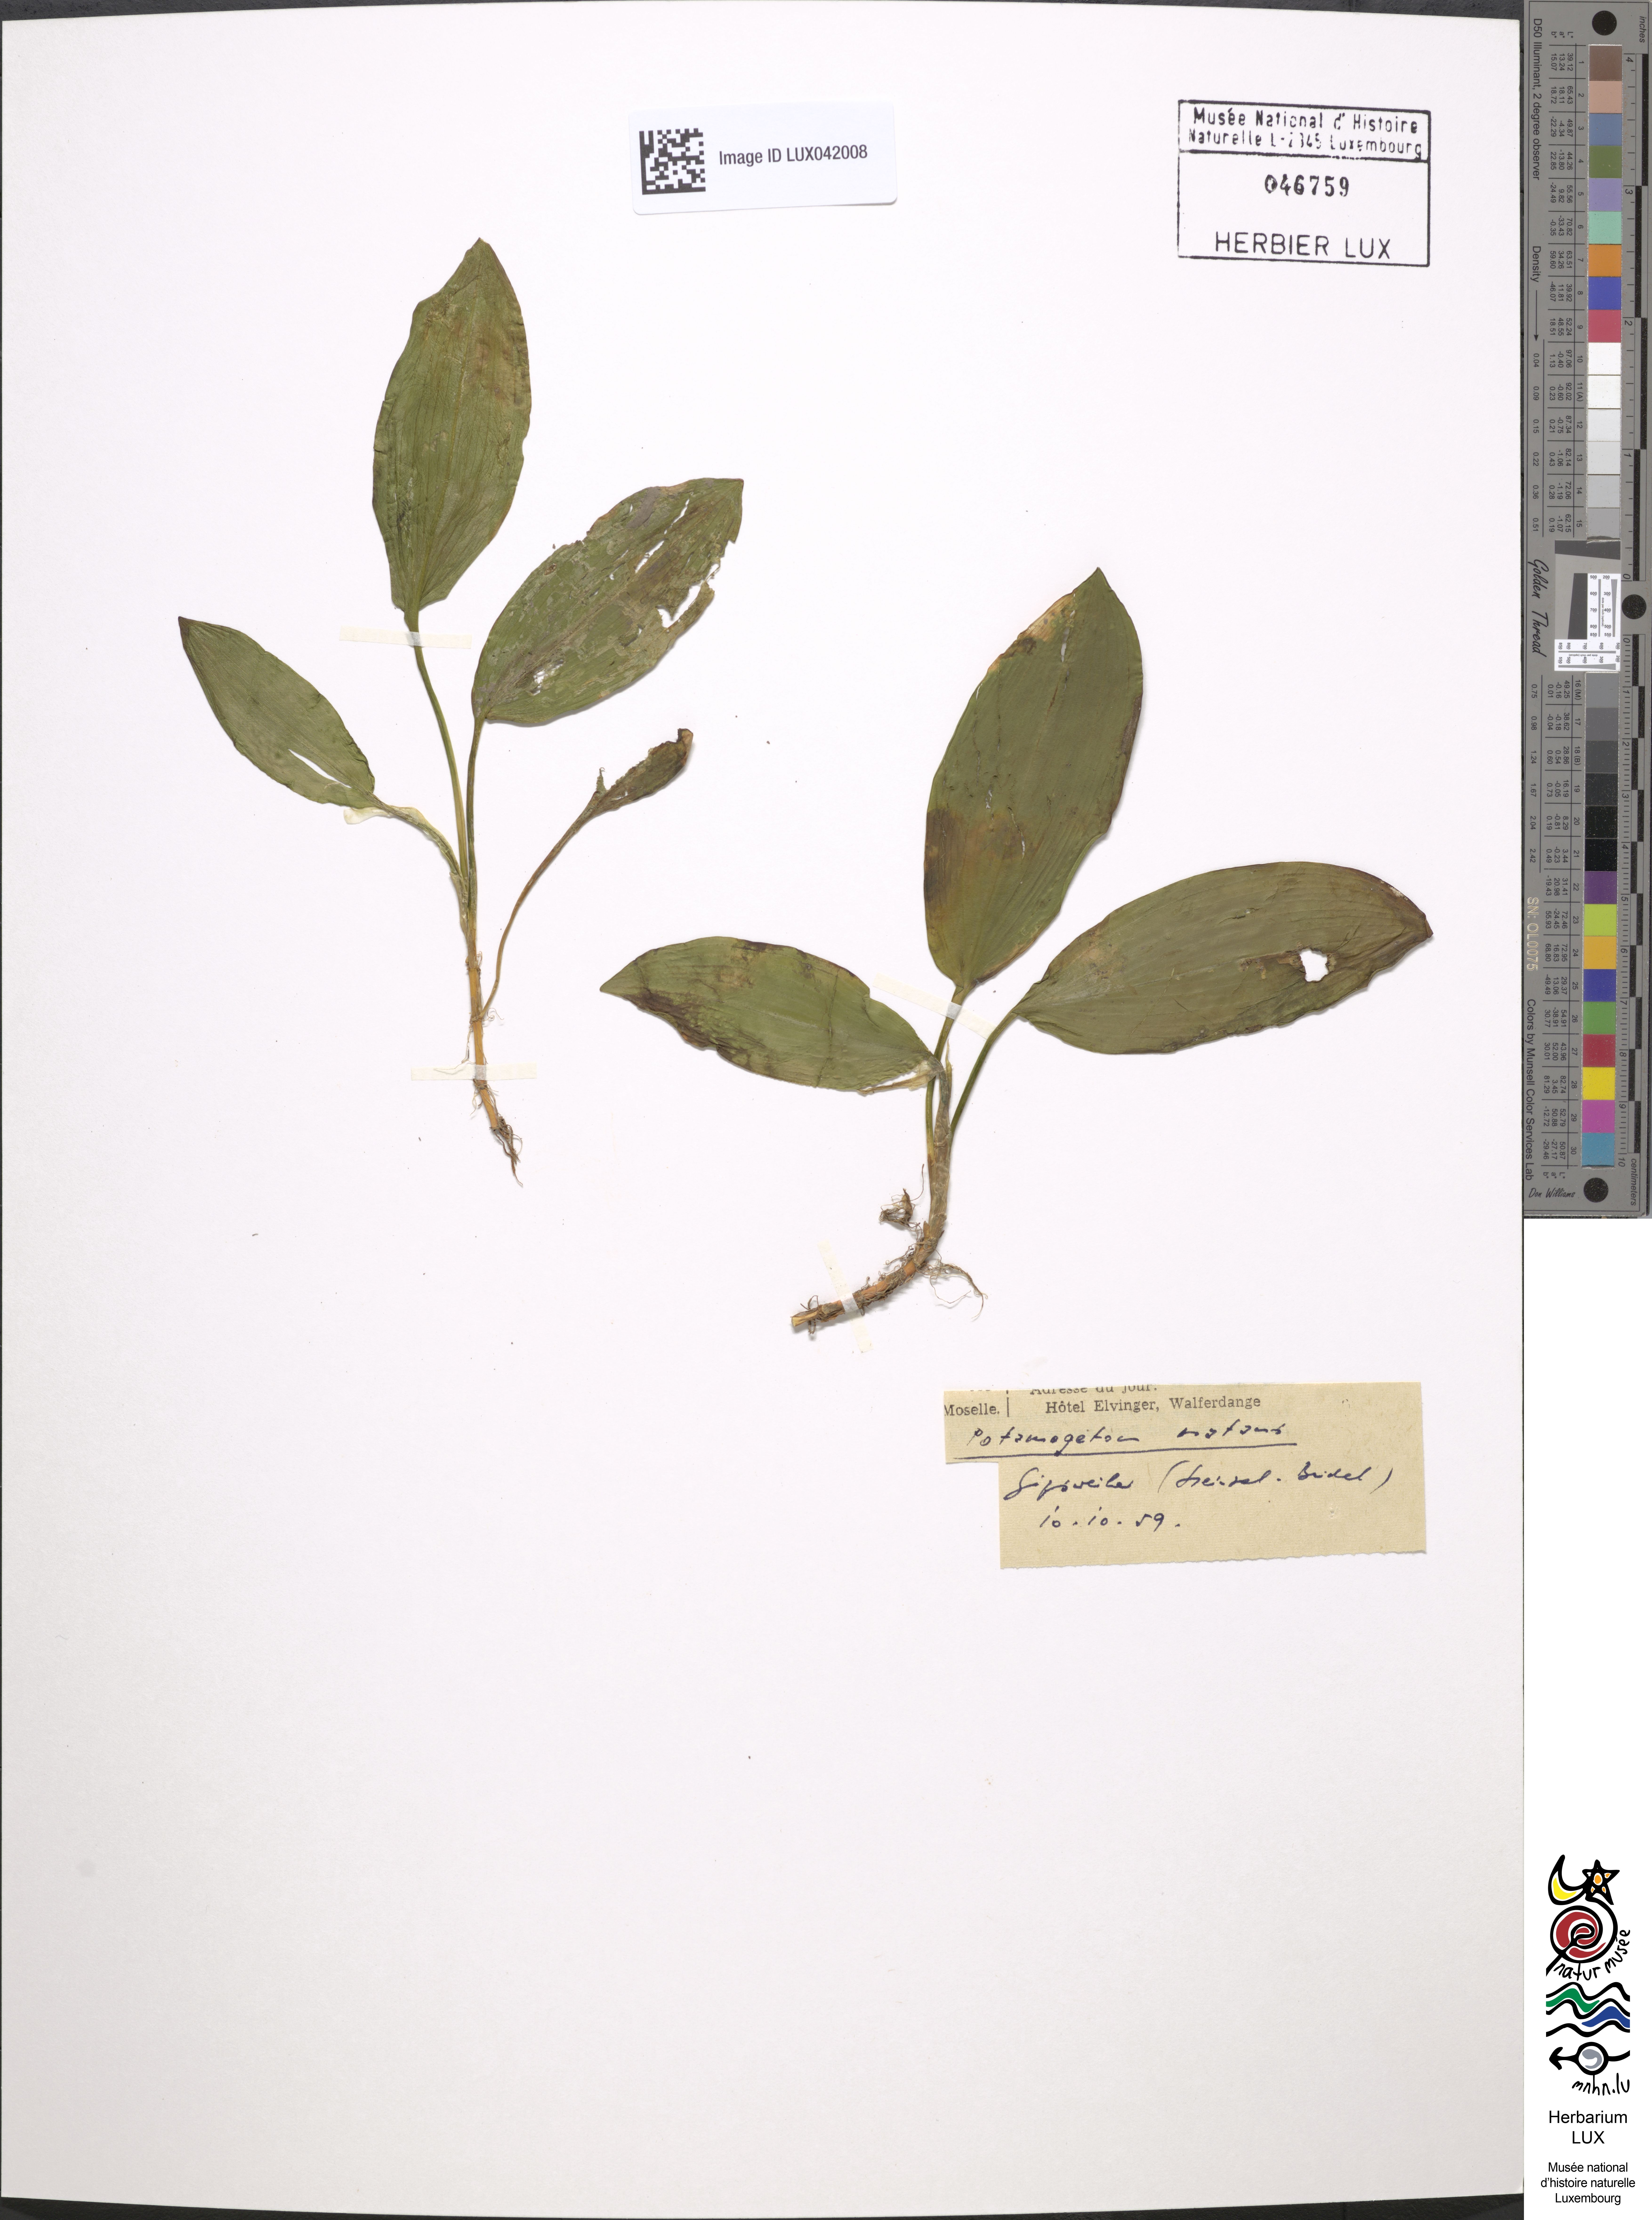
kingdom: Plantae
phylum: Tracheophyta
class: Liliopsida
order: Alismatales
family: Potamogetonaceae
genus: Potamogeton
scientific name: Potamogeton natans
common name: Broad-leaved pondweed
